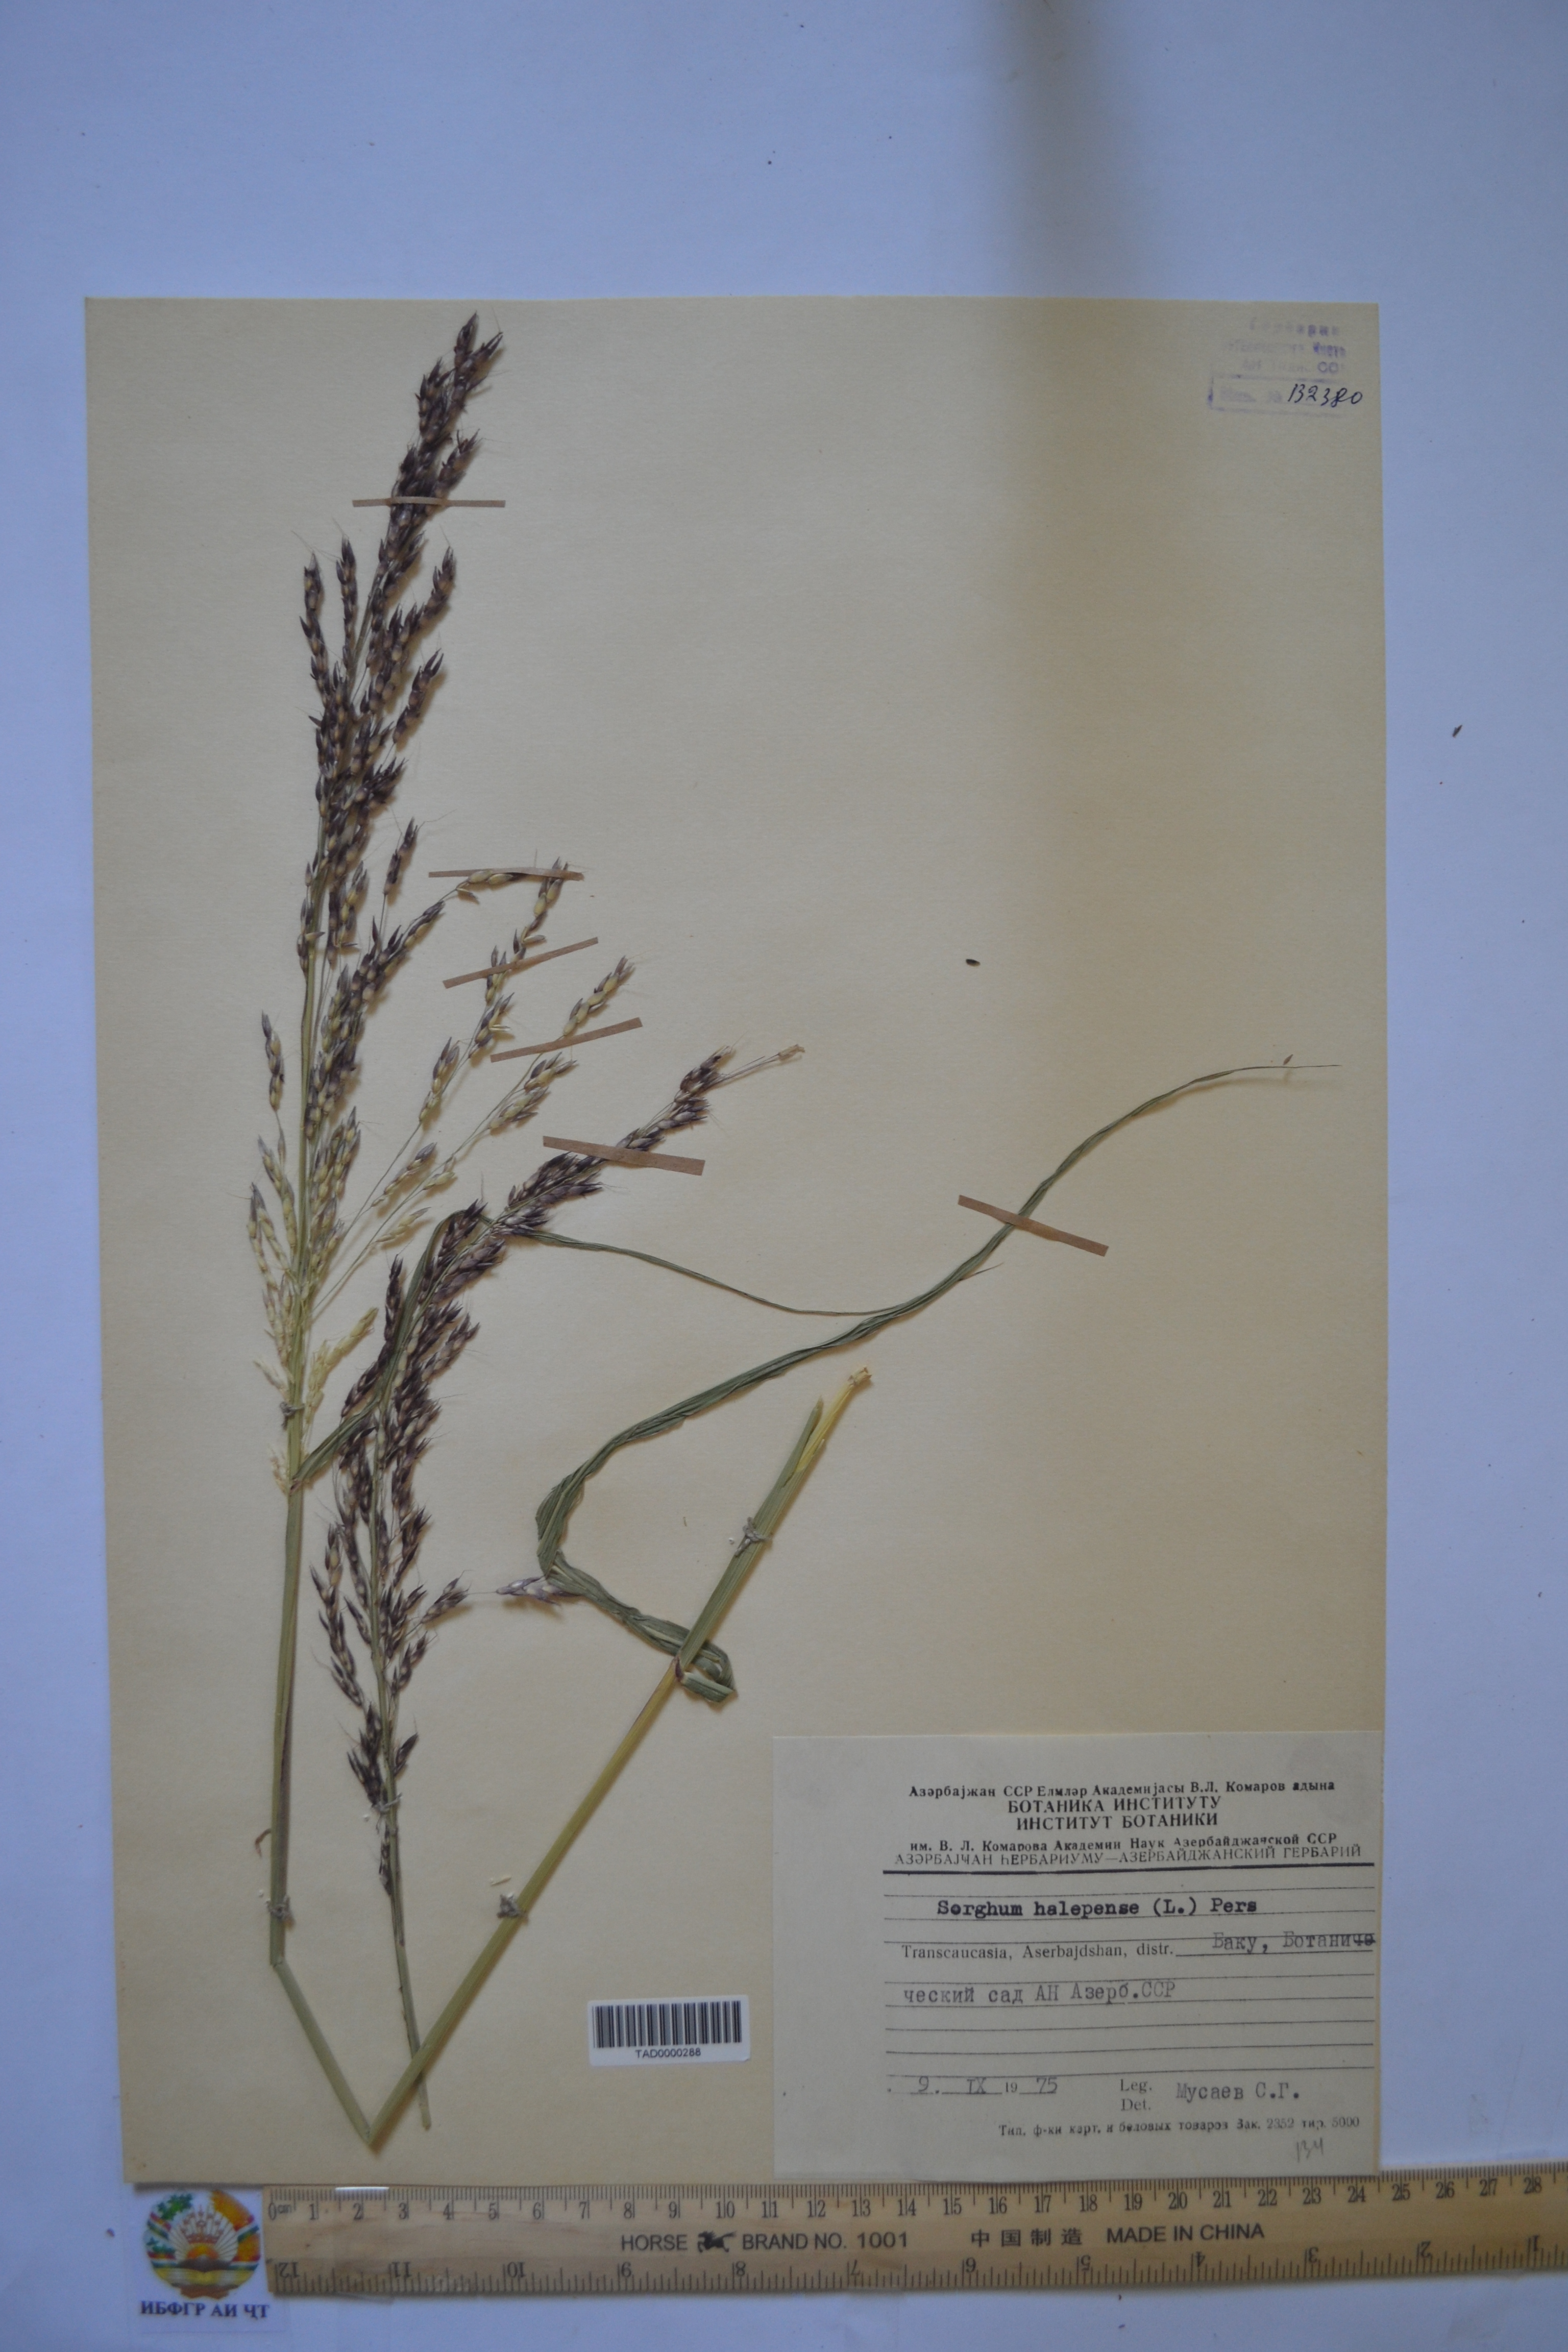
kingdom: Plantae
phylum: Tracheophyta
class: Liliopsida
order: Poales
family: Poaceae
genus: Sorghum
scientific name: Sorghum halepense
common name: Johnson-grass
